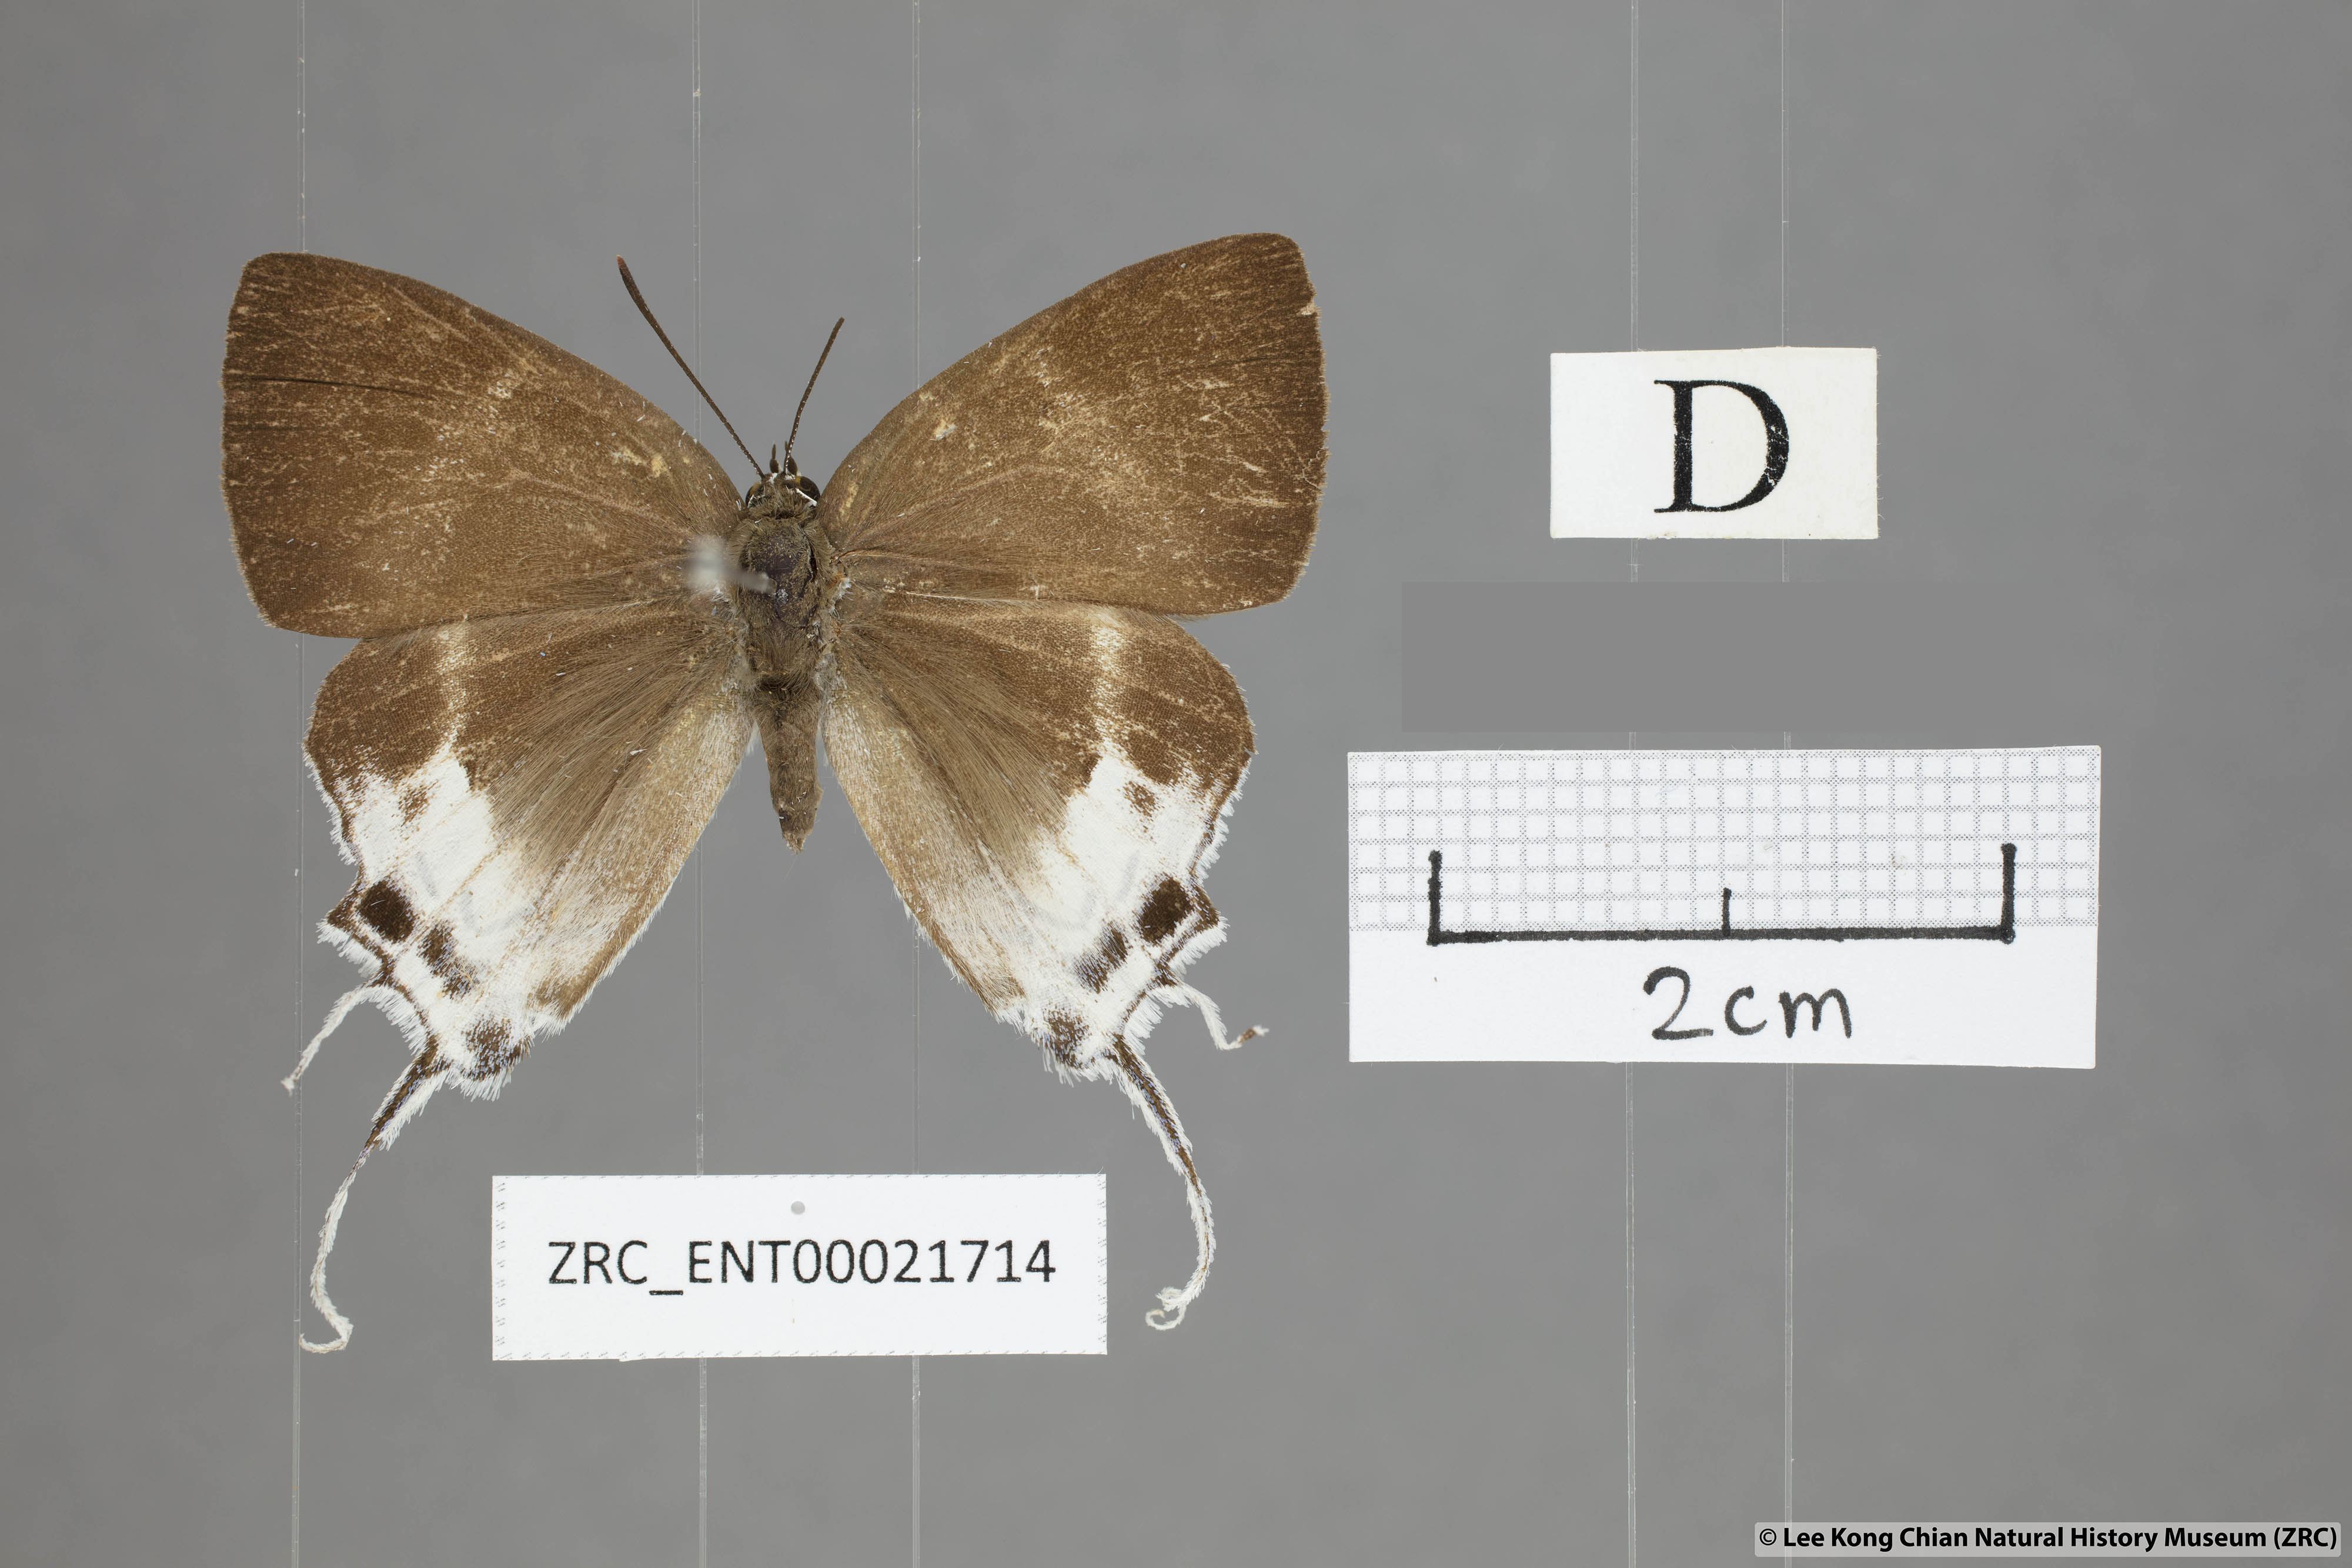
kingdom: Animalia
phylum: Arthropoda
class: Insecta
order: Lepidoptera
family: Lycaenidae
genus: Neocheritra
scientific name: Neocheritra
